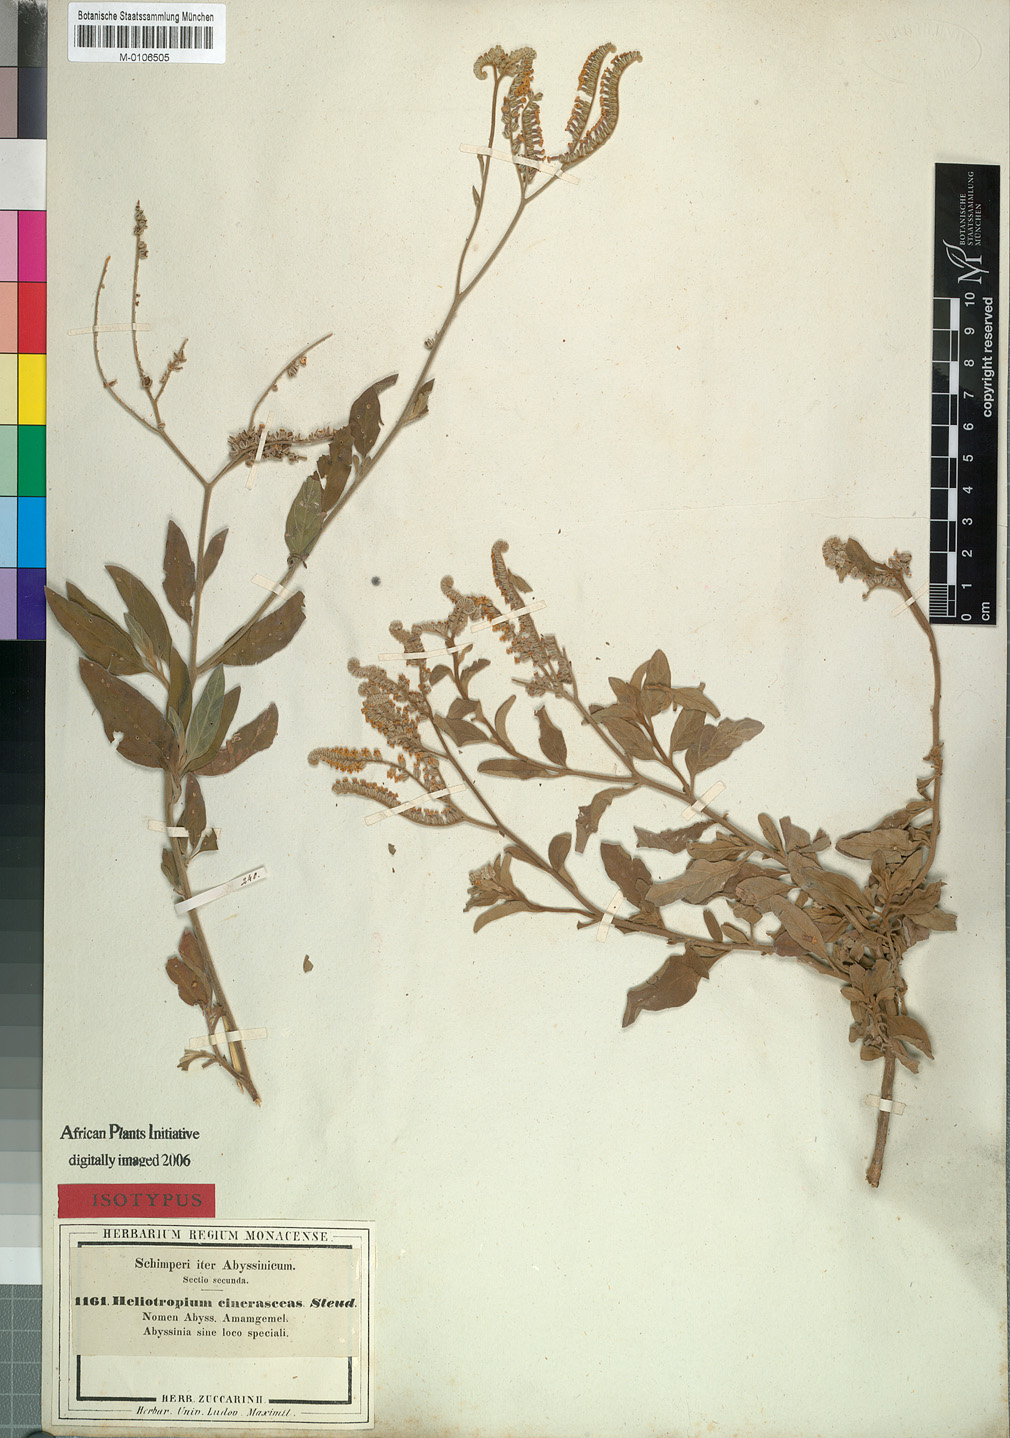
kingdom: Plantae
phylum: Tracheophyta
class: Magnoliopsida
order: Boraginales
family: Heliotropiaceae
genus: Heliotropium
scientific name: Heliotropium aegyptiacum
